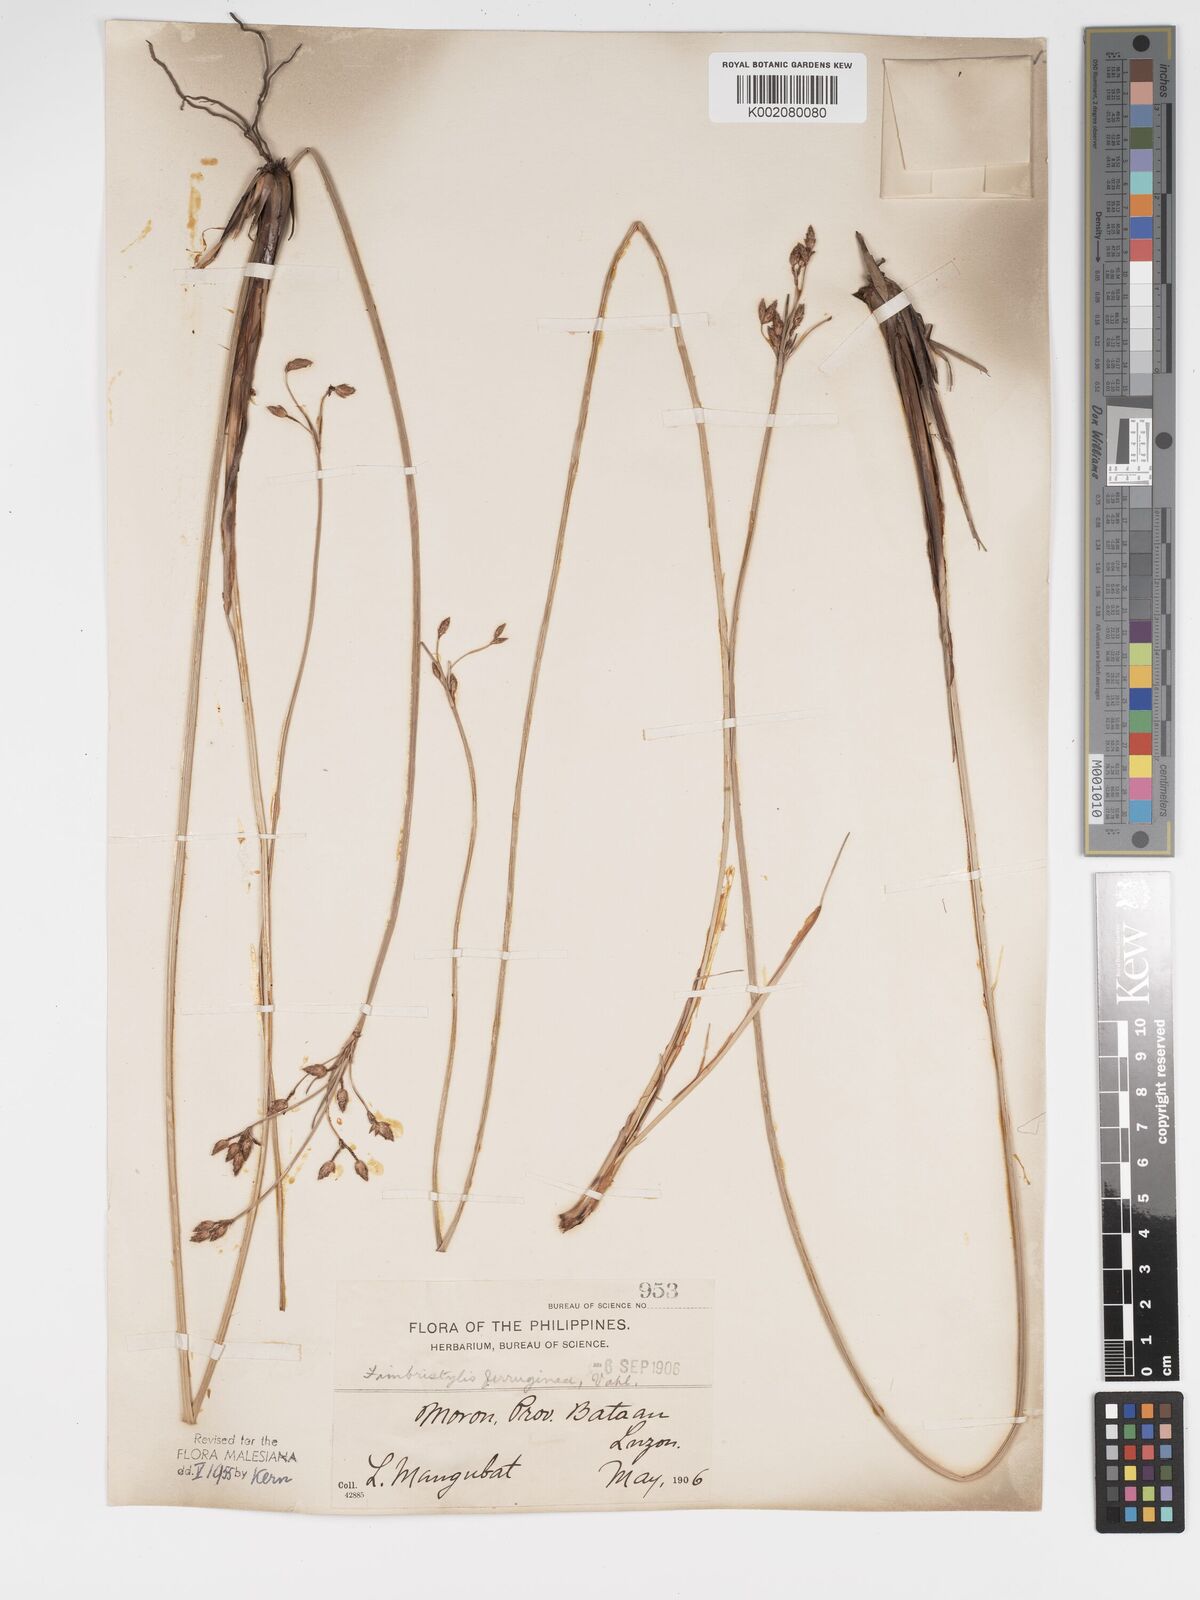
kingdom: Plantae
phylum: Tracheophyta
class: Liliopsida
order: Poales
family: Cyperaceae
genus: Fimbristylis
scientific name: Fimbristylis ferruginea
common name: West indian fimbry
